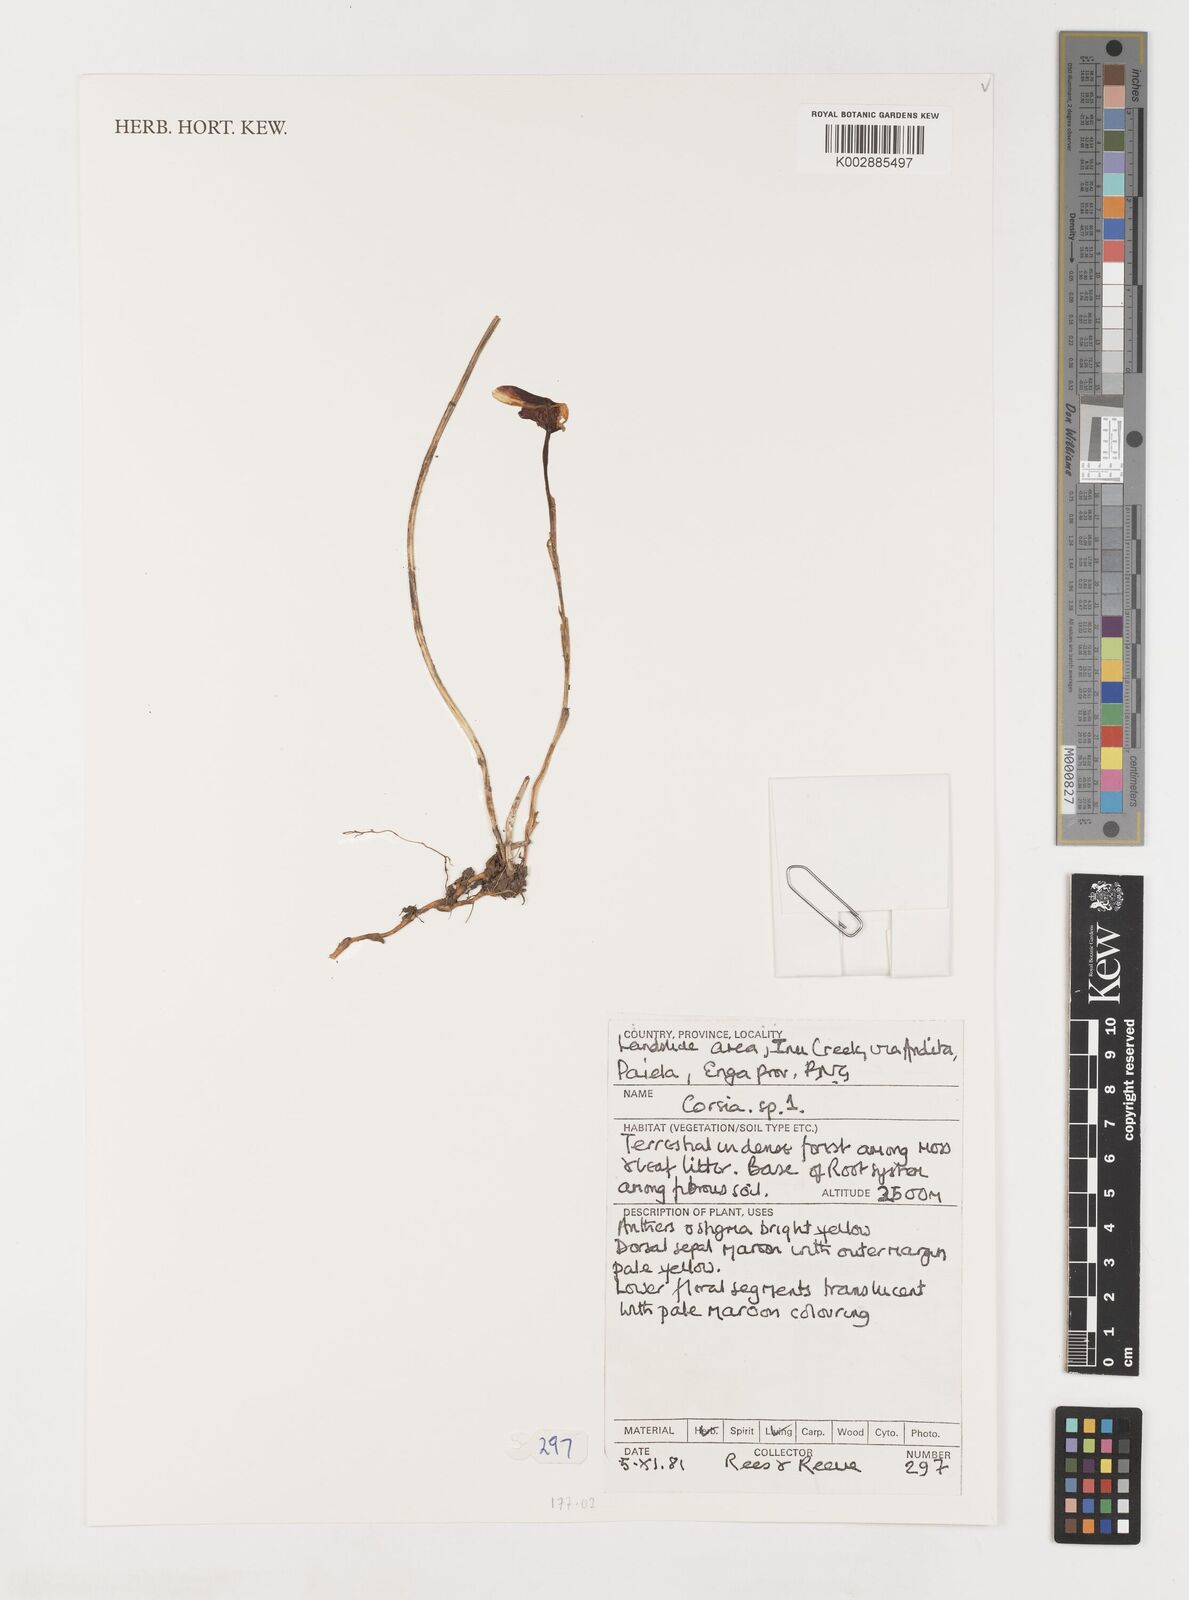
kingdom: Plantae
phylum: Tracheophyta
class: Liliopsida
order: Liliales
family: Corsiaceae
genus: Corsia
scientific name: Corsia
